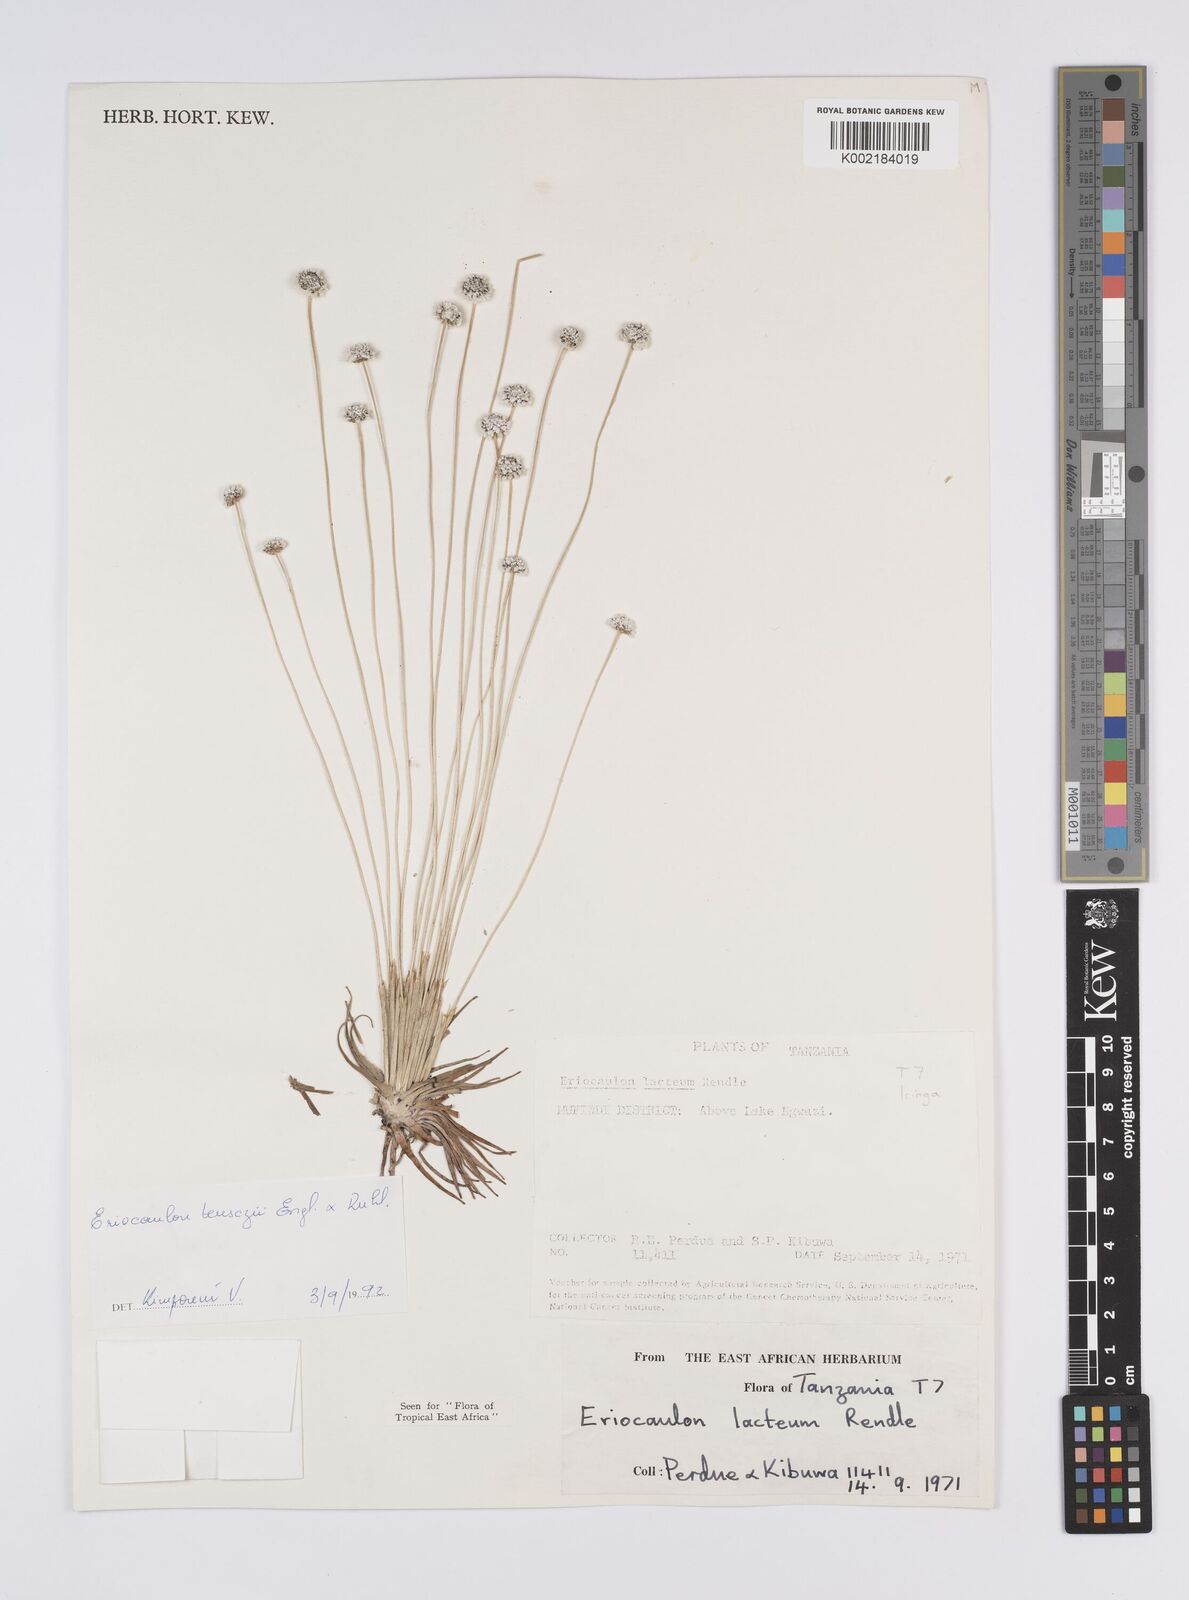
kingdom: Plantae
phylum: Tracheophyta
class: Liliopsida
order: Poales
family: Eriocaulaceae
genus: Eriocaulon
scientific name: Eriocaulon teusczii
